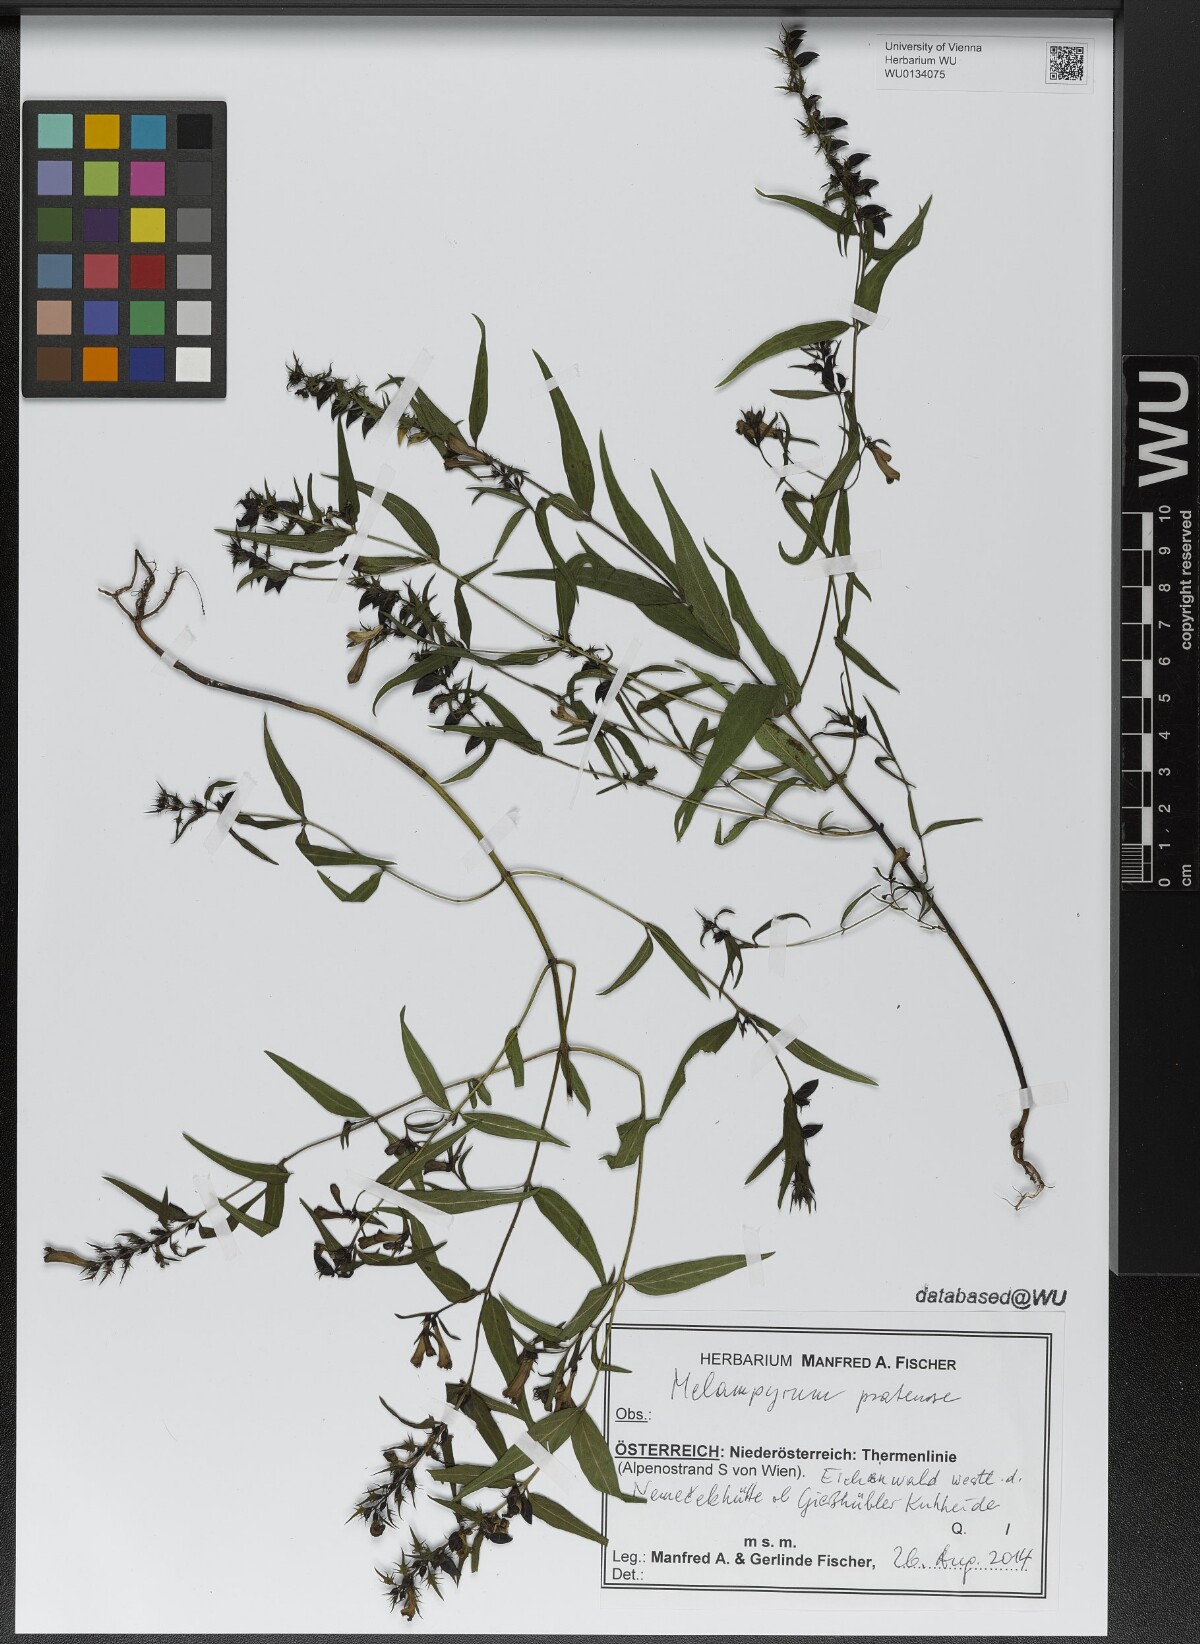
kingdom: Plantae
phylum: Tracheophyta
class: Magnoliopsida
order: Lamiales
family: Orobanchaceae
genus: Melampyrum
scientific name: Melampyrum pratense
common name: Common cow-wheat
